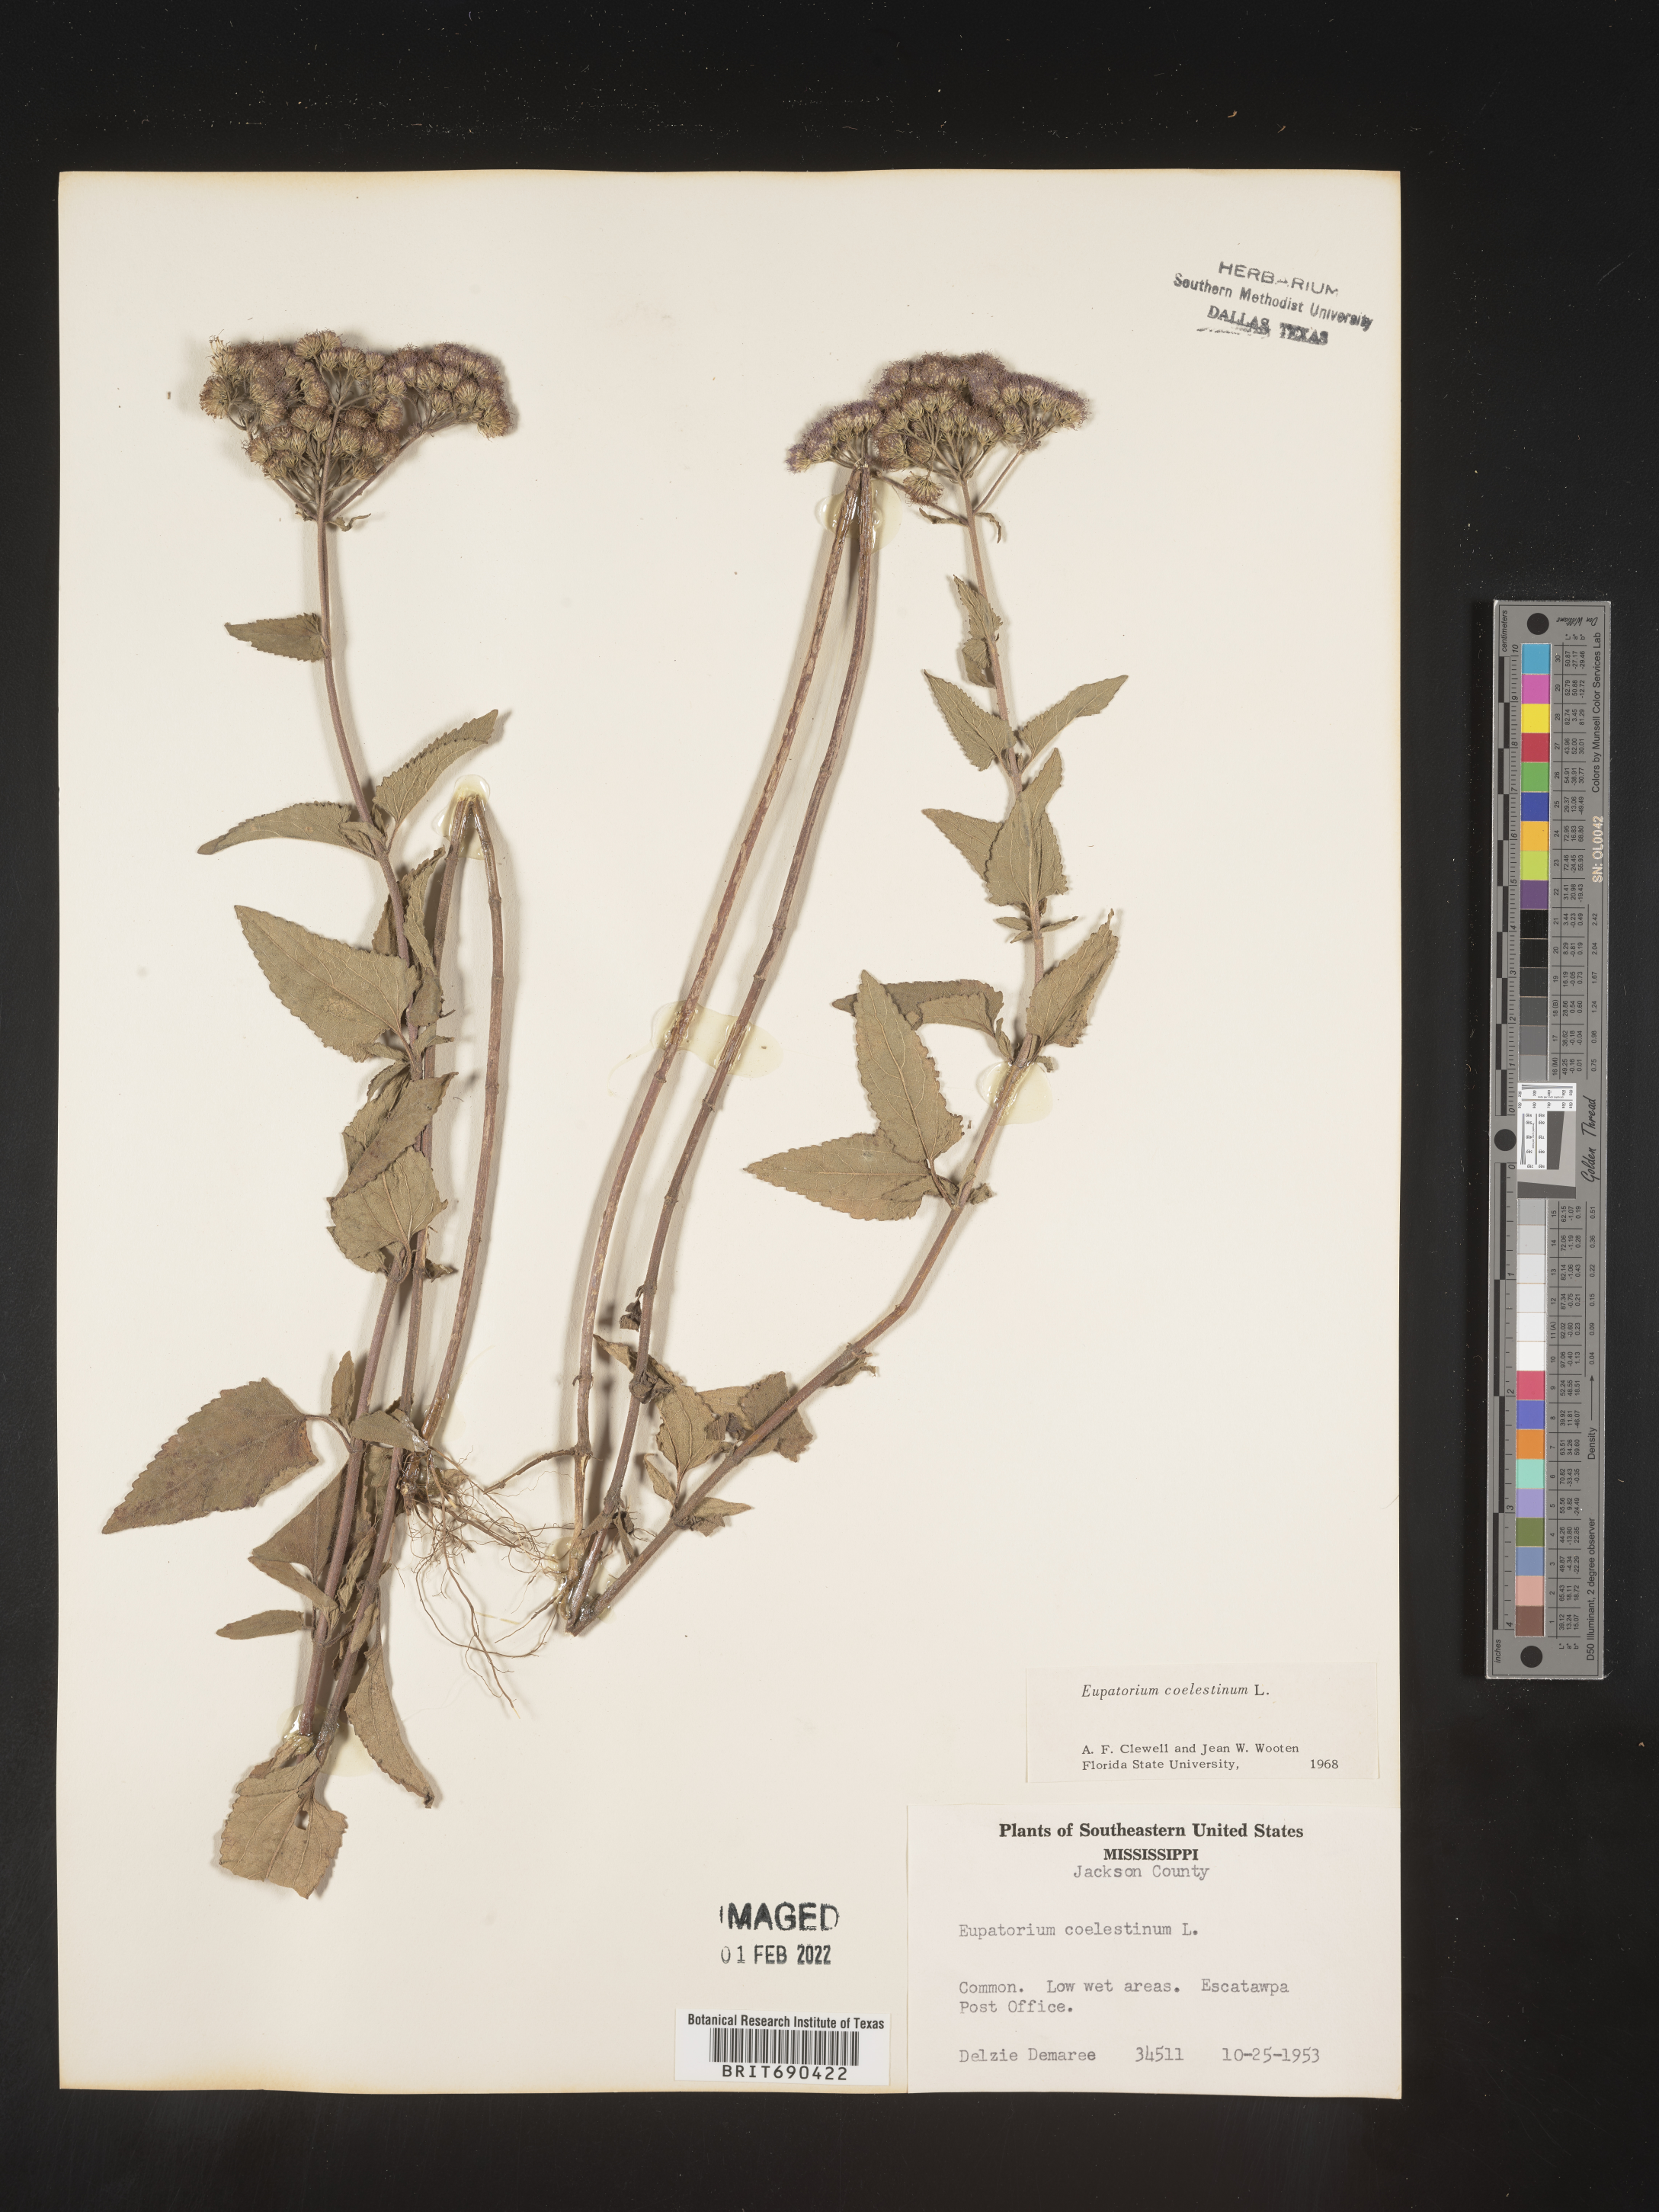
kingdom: Plantae
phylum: Tracheophyta
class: Magnoliopsida
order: Asterales
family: Asteraceae
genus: Conoclinium
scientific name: Conoclinium coelestinum
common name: Blue mistflower
